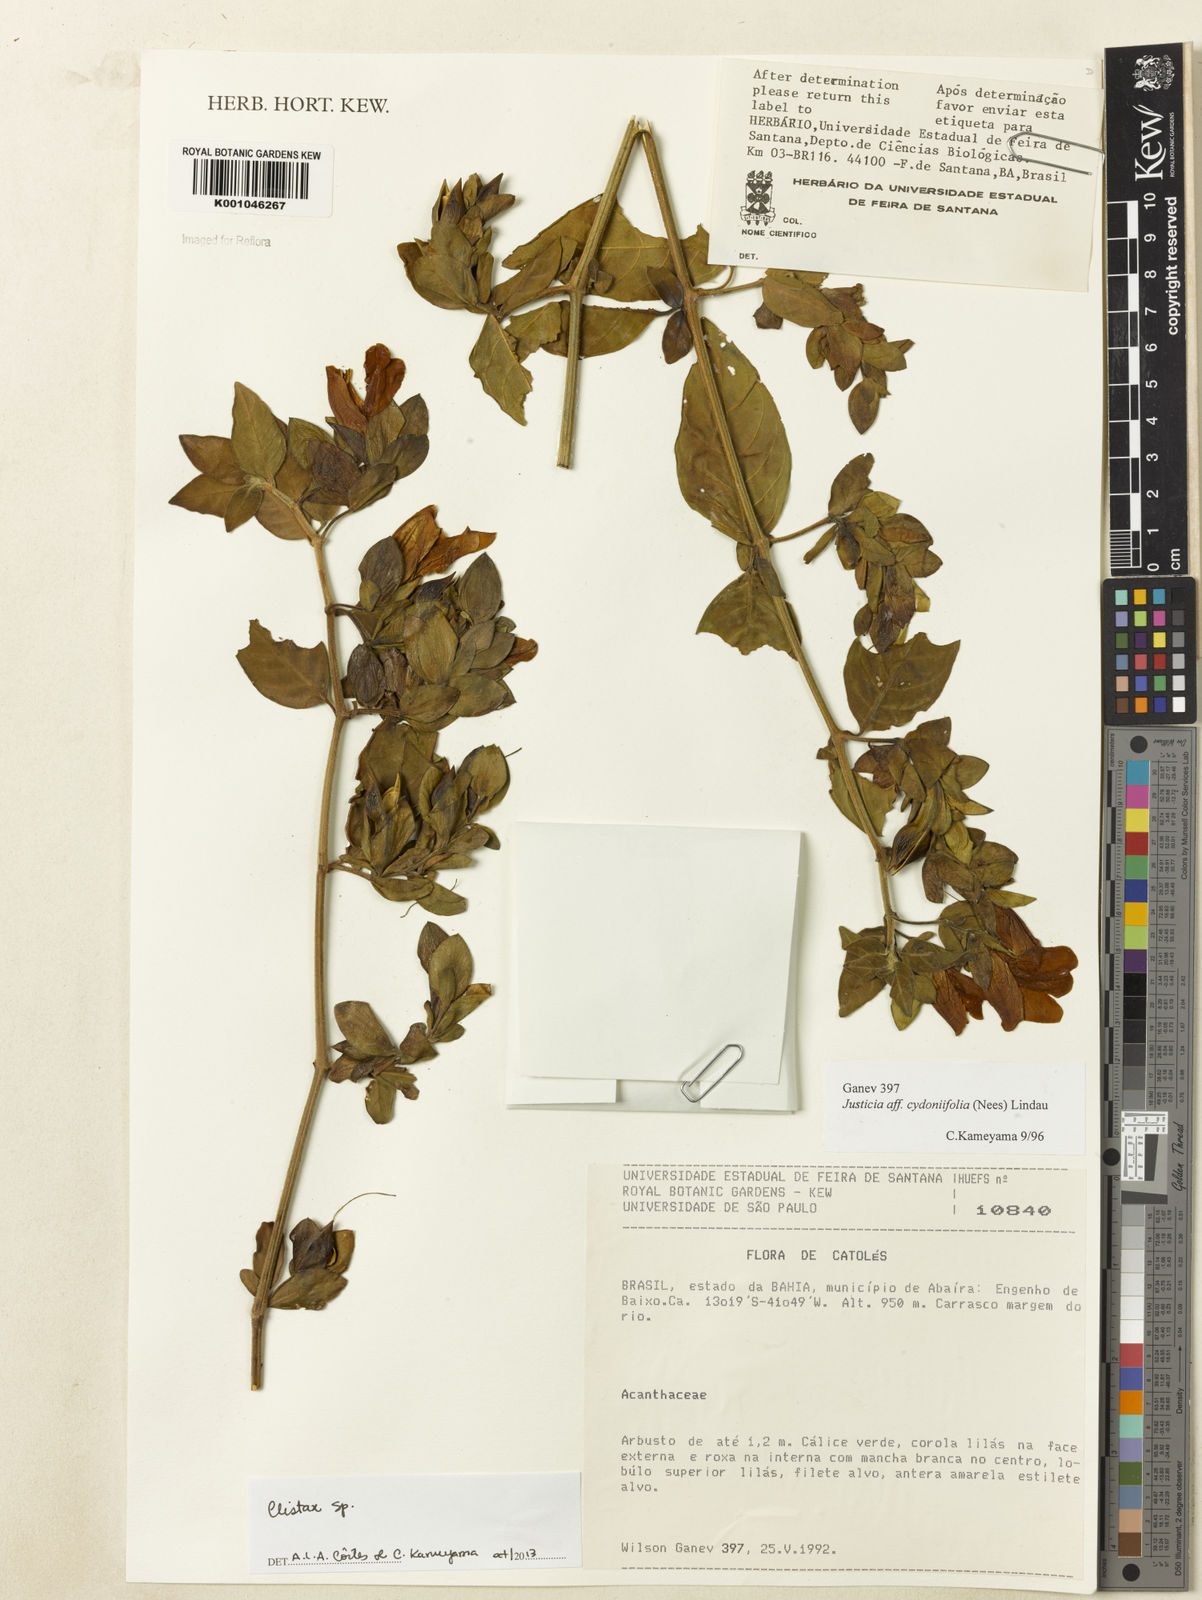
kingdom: Plantae
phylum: Tracheophyta
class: Magnoliopsida
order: Lamiales
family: Acanthaceae
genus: Clistax
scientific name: Clistax brasiliensis
